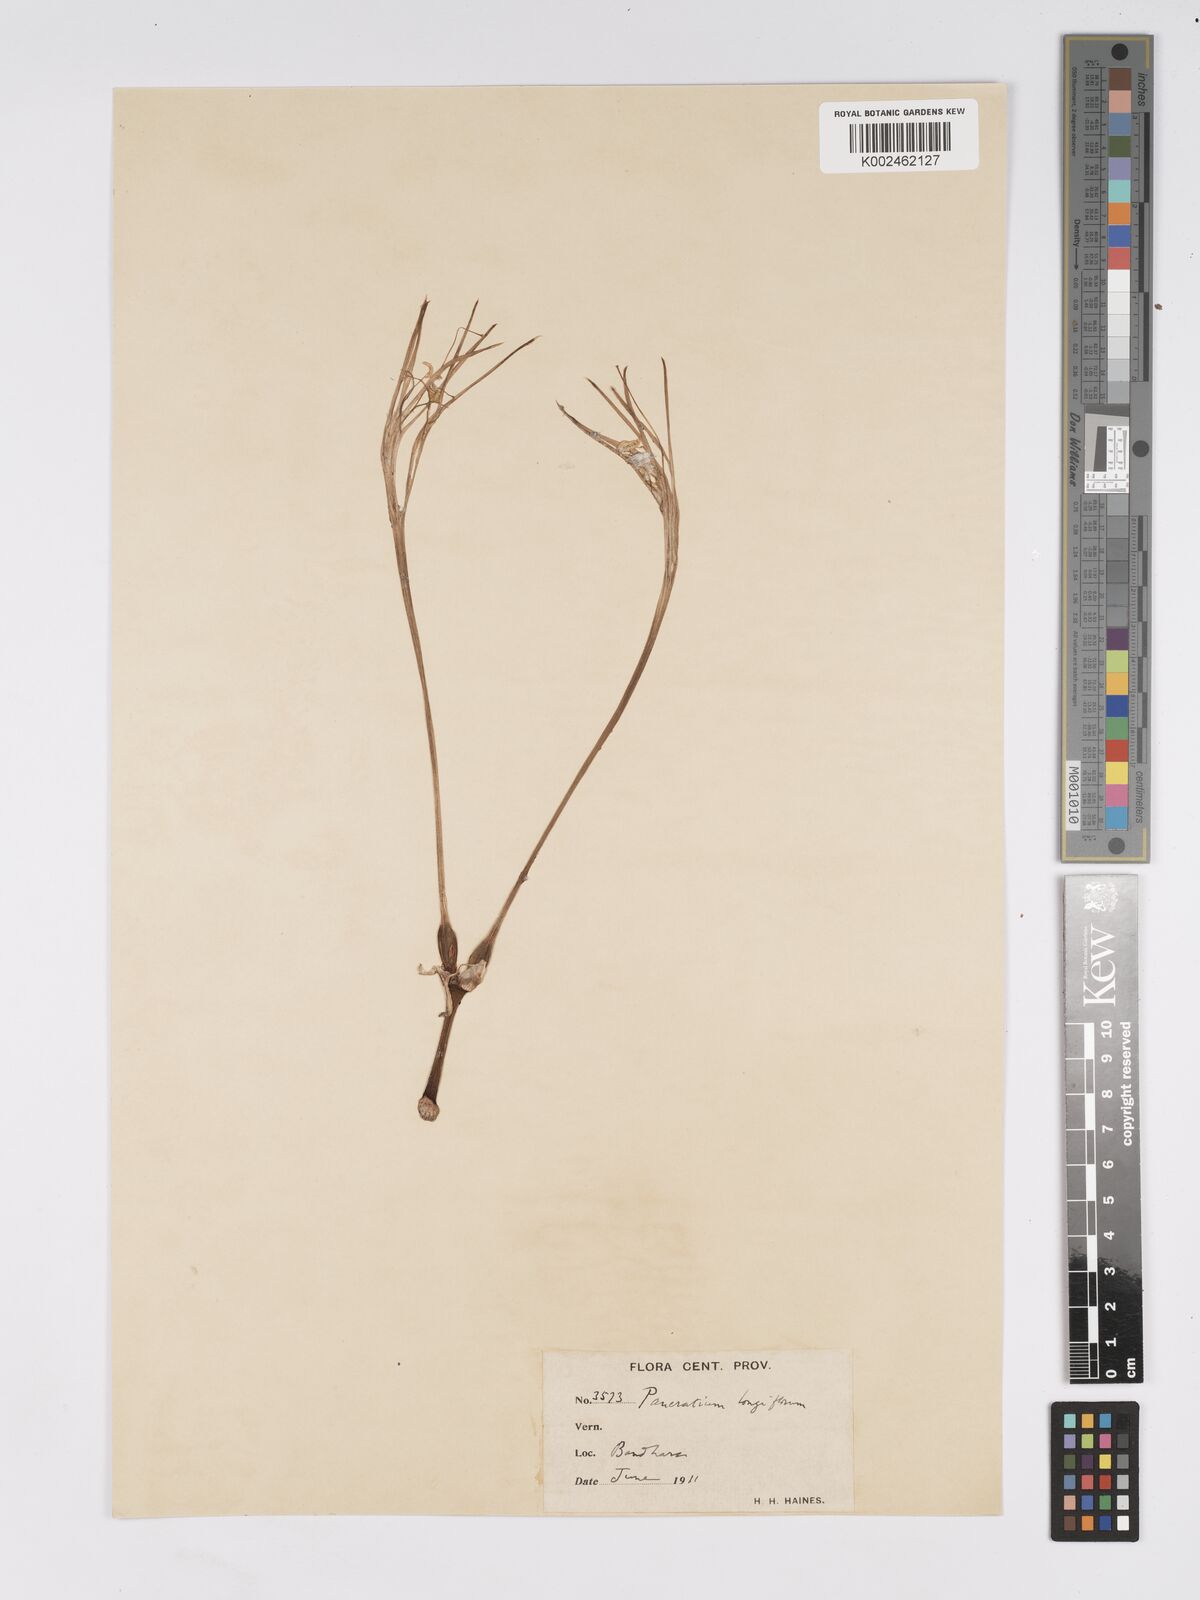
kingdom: Plantae
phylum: Tracheophyta
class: Liliopsida
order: Asparagales
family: Amaryllidaceae
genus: Pancratium
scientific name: Pancratium verecundum
